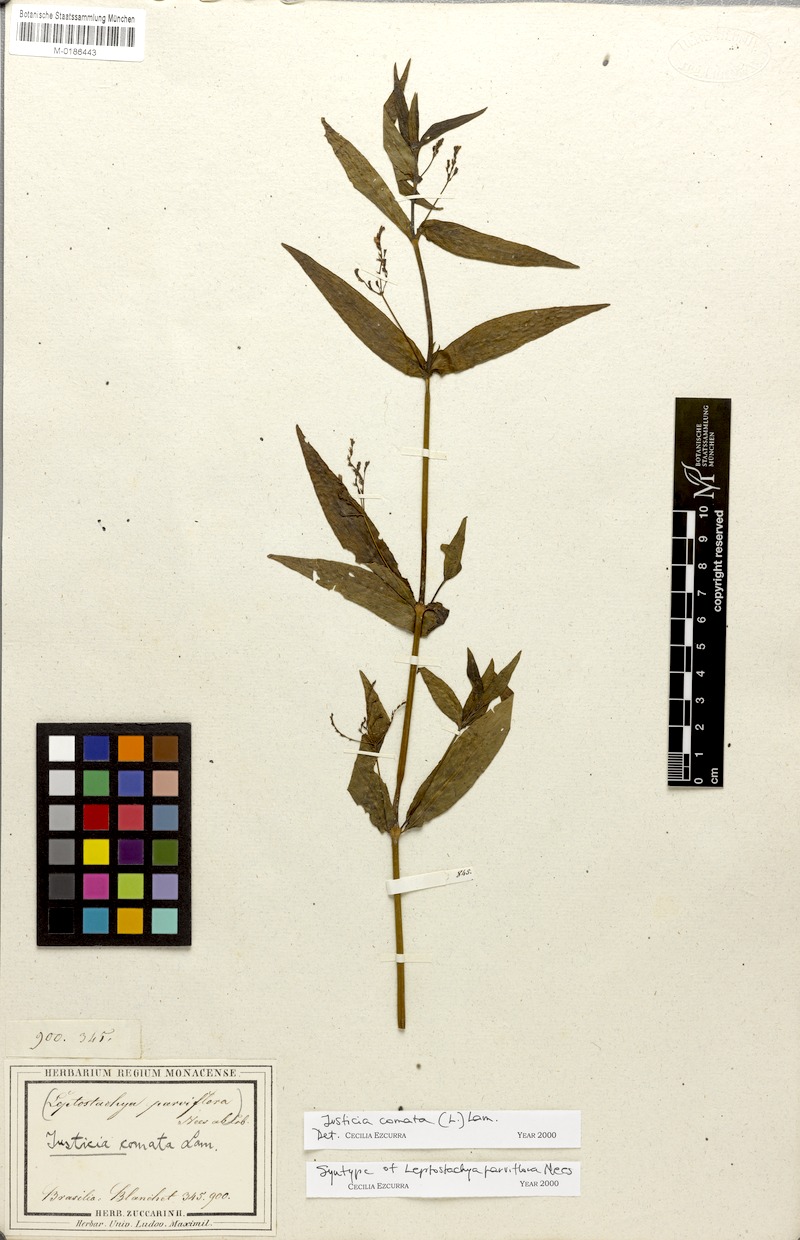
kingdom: Plantae
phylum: Tracheophyta
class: Magnoliopsida
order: Lamiales
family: Acanthaceae
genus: Dianthera
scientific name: Dianthera comata
